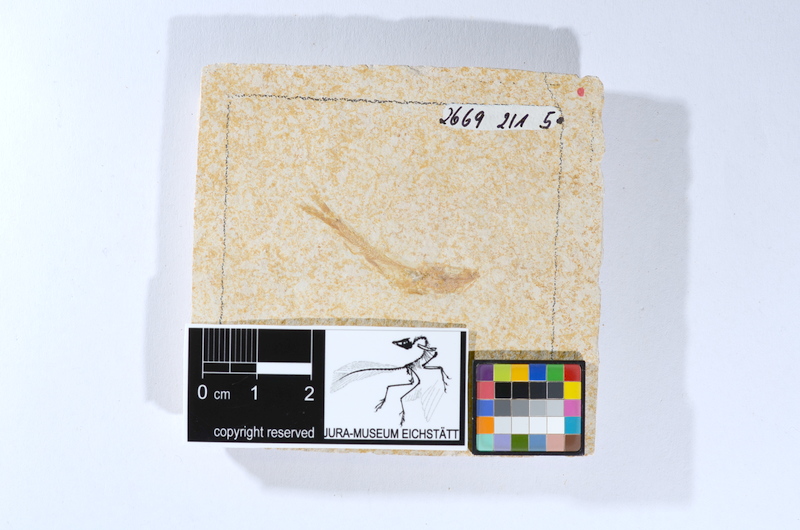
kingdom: Animalia
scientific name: Animalia
